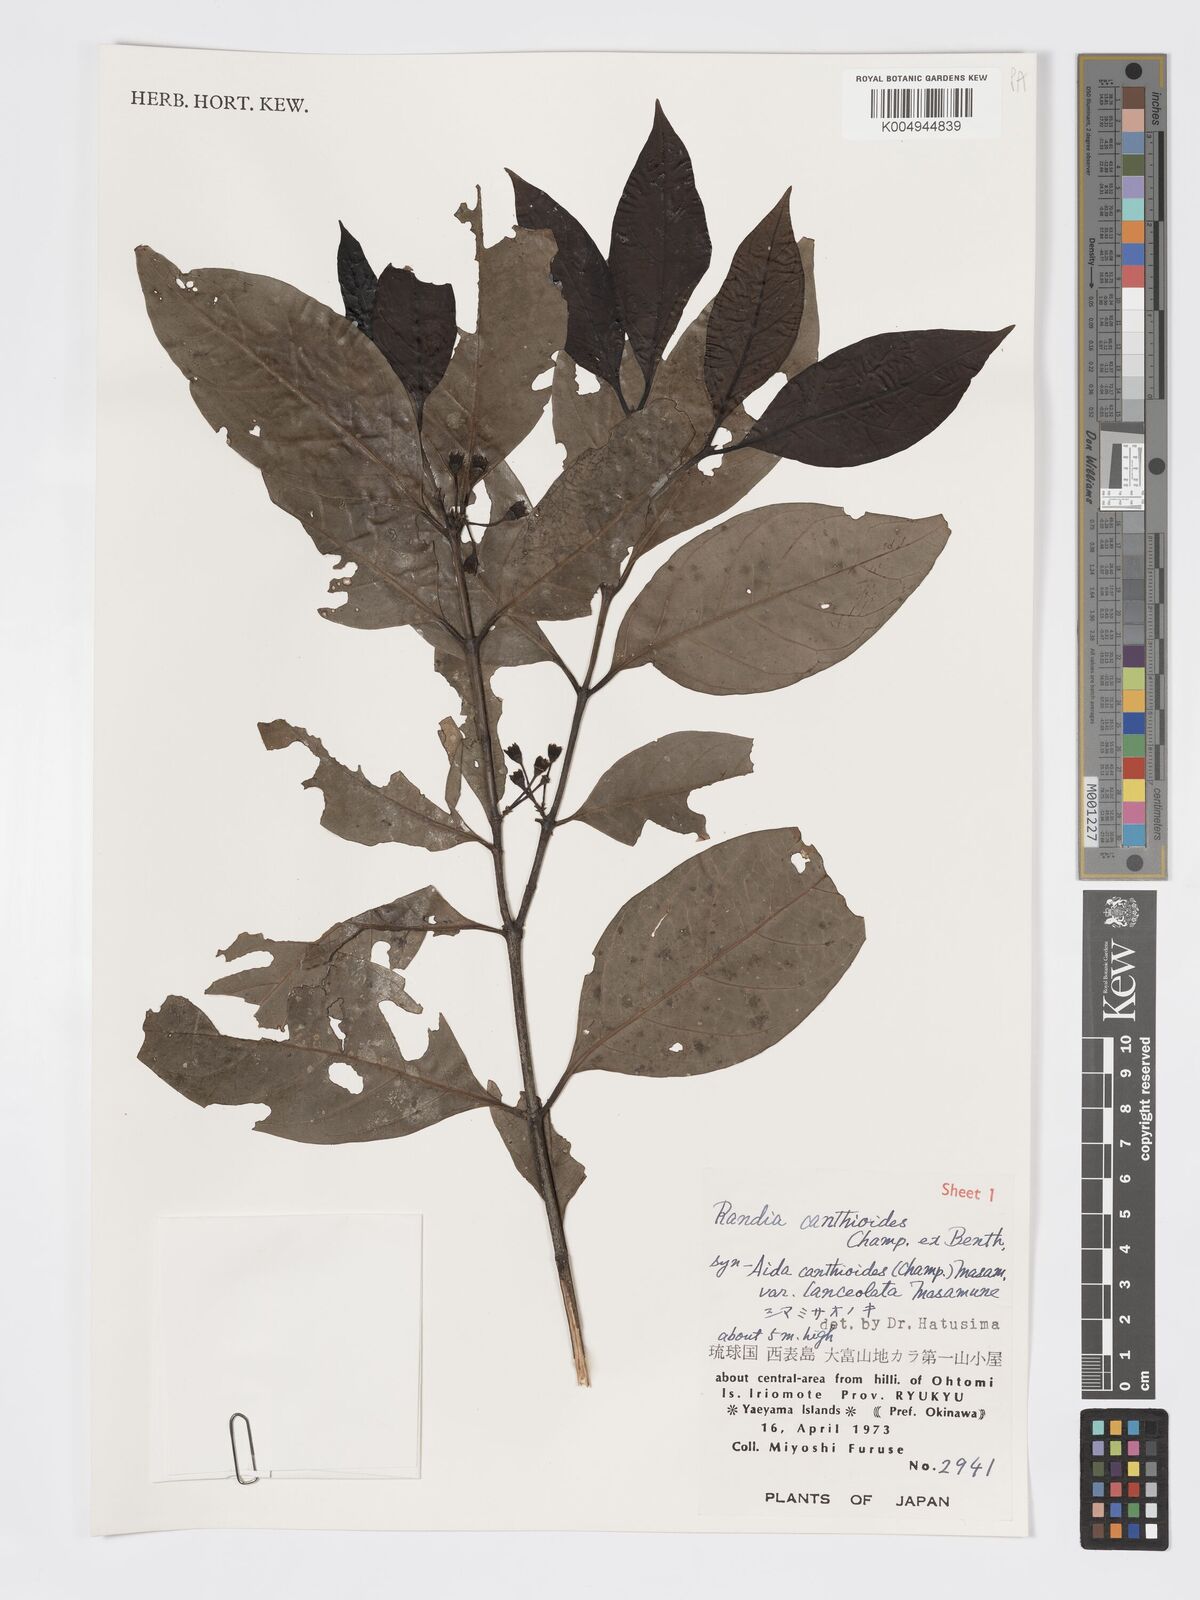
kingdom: Plantae
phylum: Tracheophyta
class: Magnoliopsida
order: Gentianales
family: Rubiaceae
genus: Aidia
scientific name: Aidia canthioides
